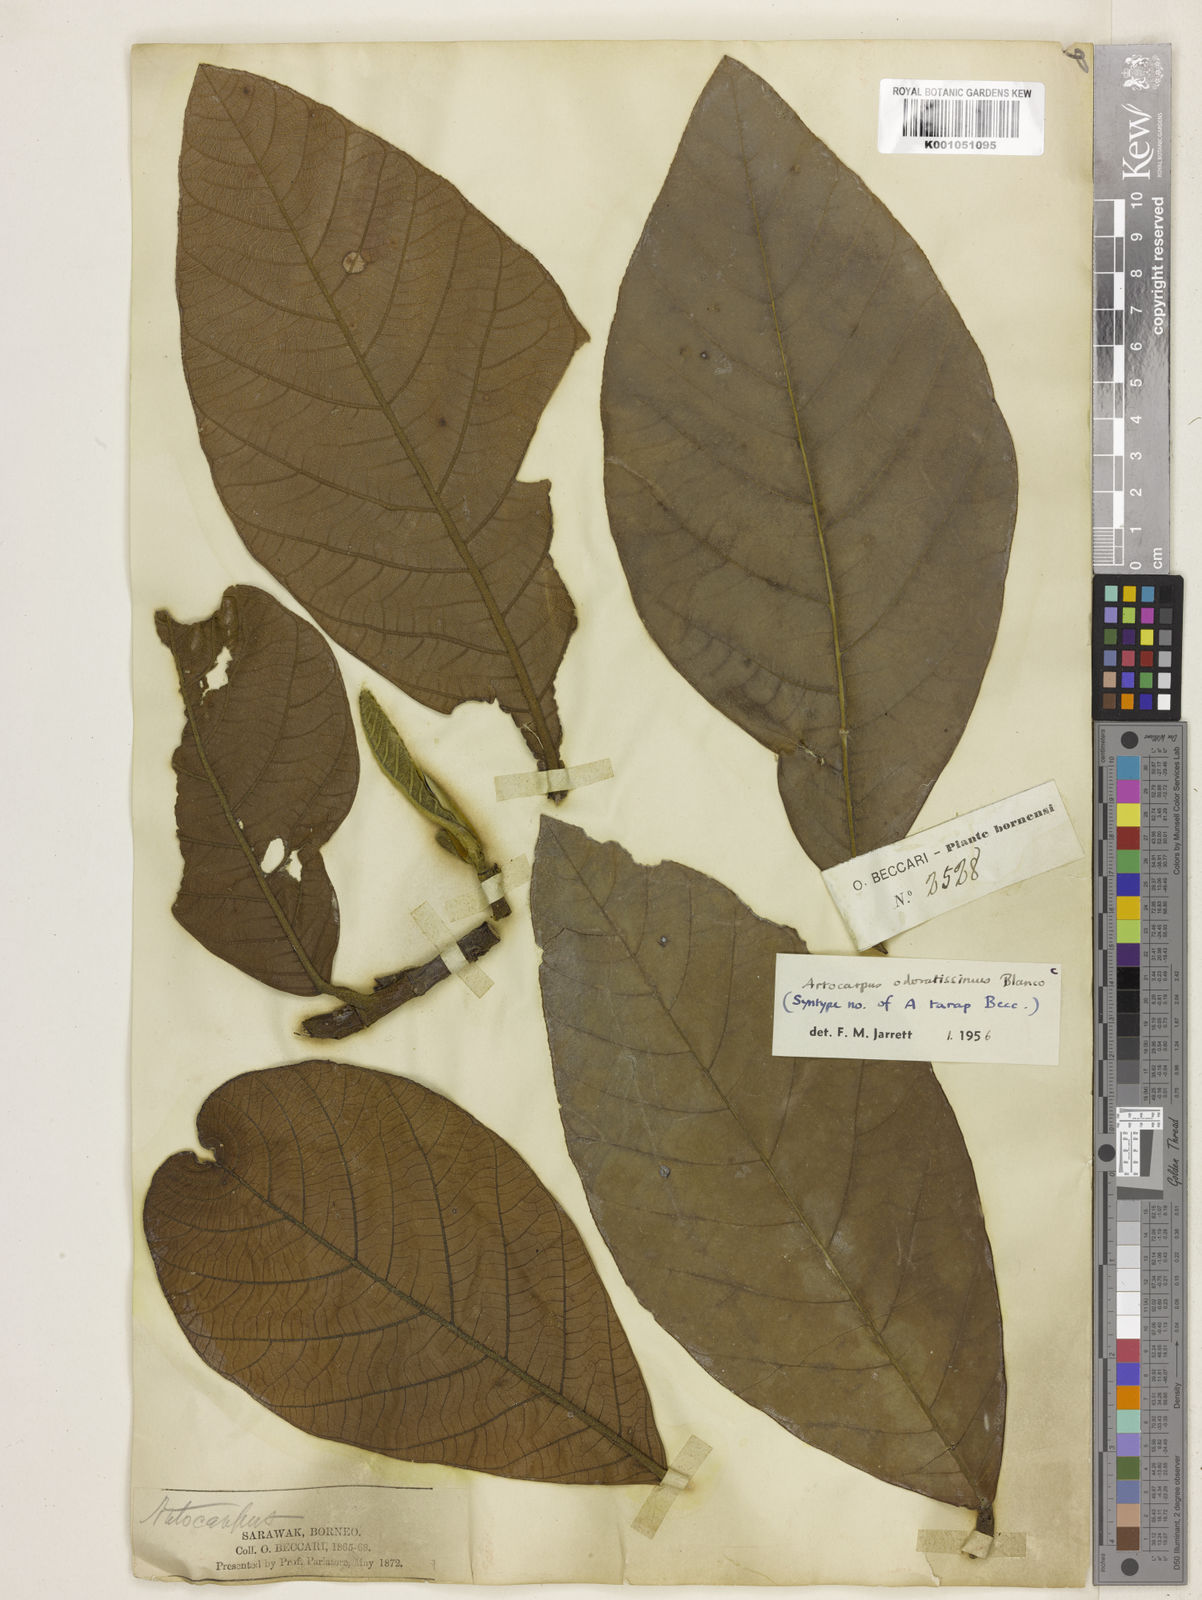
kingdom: Plantae
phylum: Tracheophyta
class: Magnoliopsida
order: Rosales
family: Moraceae
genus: Artocarpus
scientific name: Artocarpus odoratissimus
